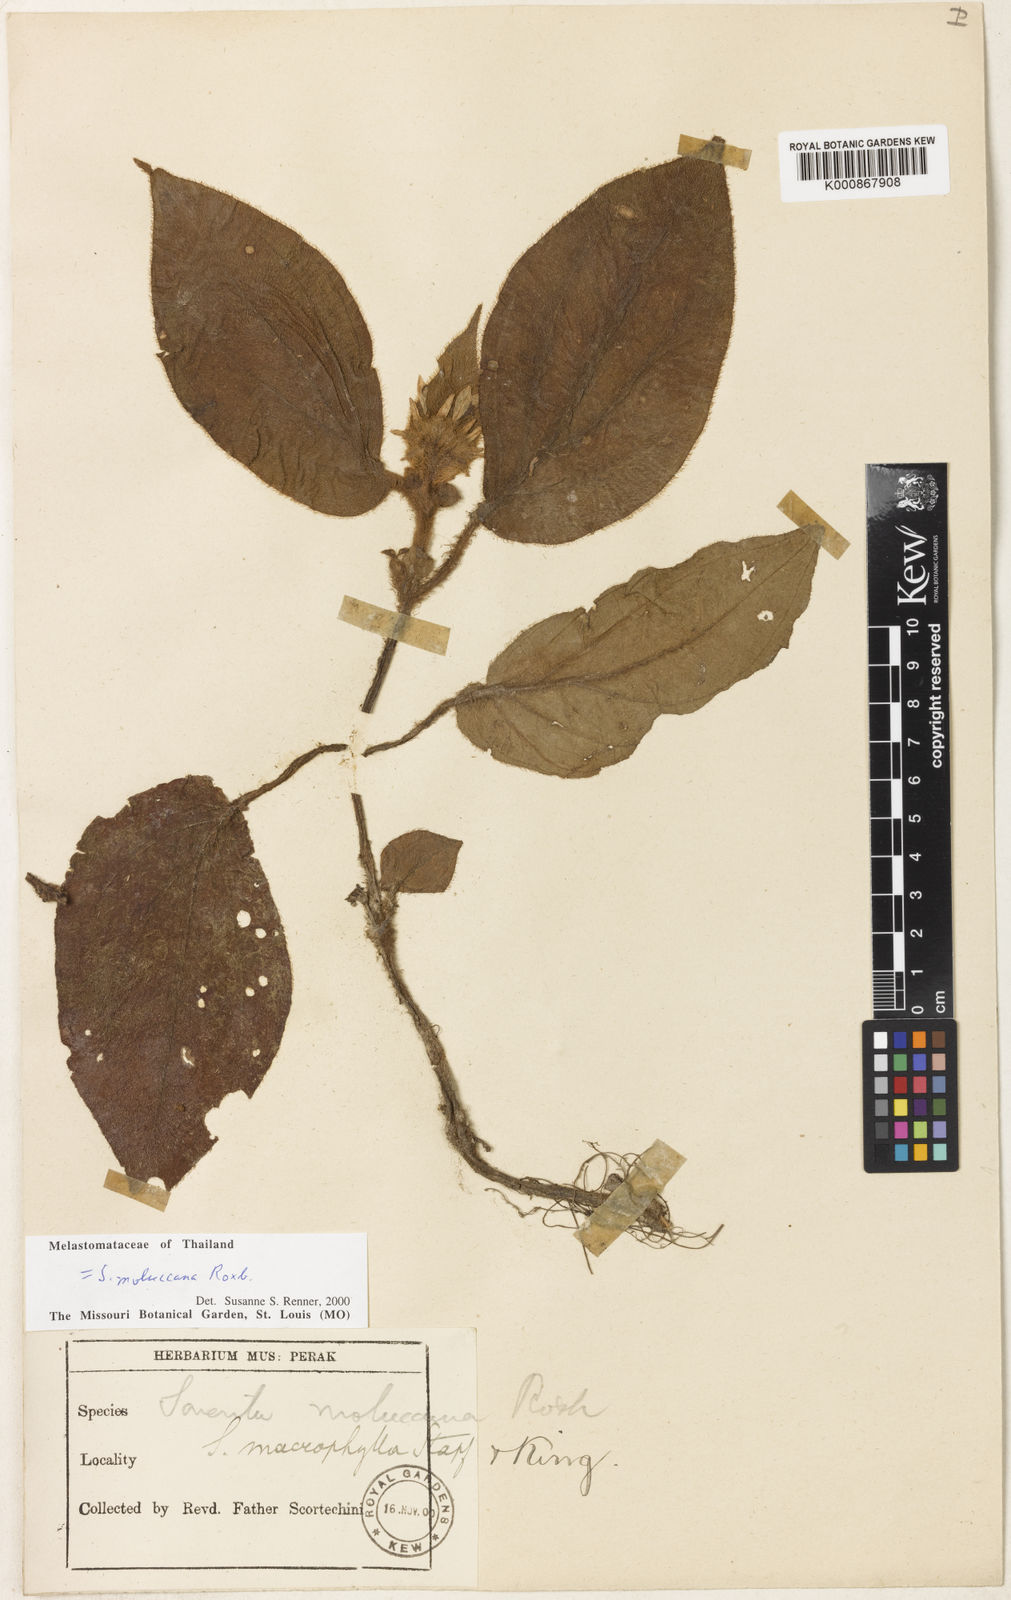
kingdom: Plantae
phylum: Tracheophyta
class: Magnoliopsida
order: Myrtales
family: Melastomataceae
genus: Sonerila
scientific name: Sonerila moluccana
